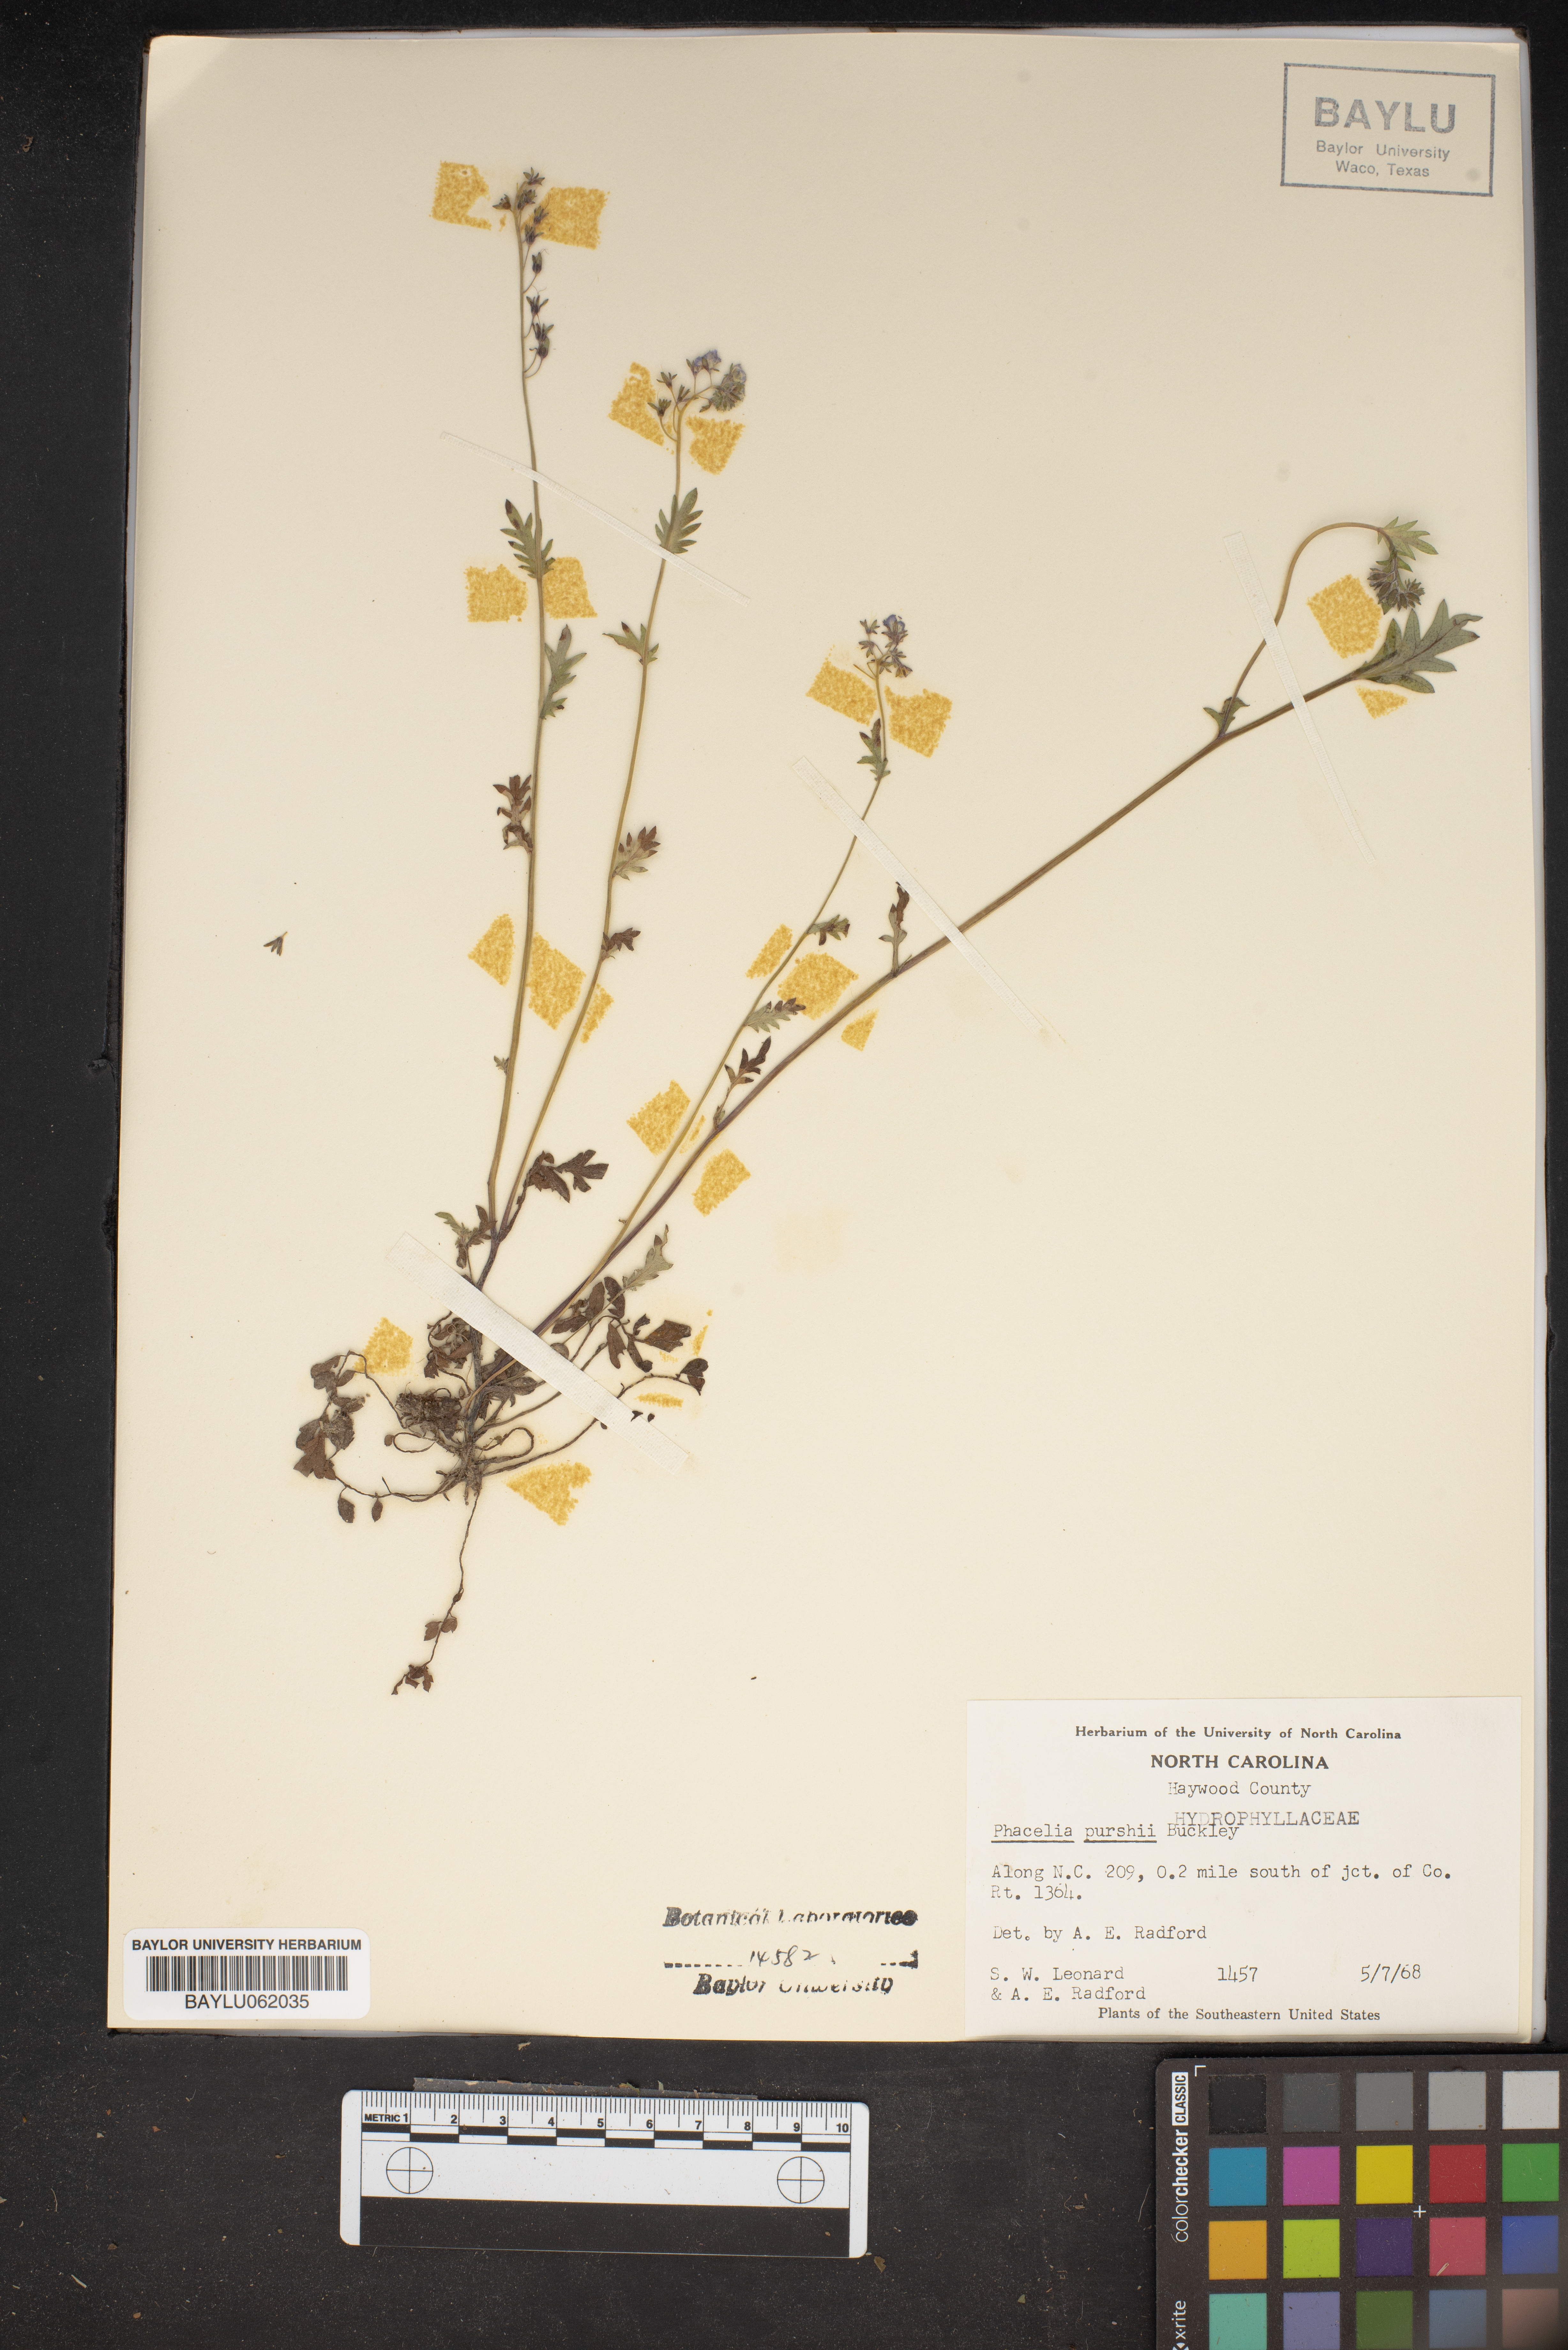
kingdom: Plantae
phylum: Tracheophyta
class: Magnoliopsida
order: Boraginales
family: Hydrophyllaceae
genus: Phacelia
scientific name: Phacelia purshii
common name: Miami-mist
